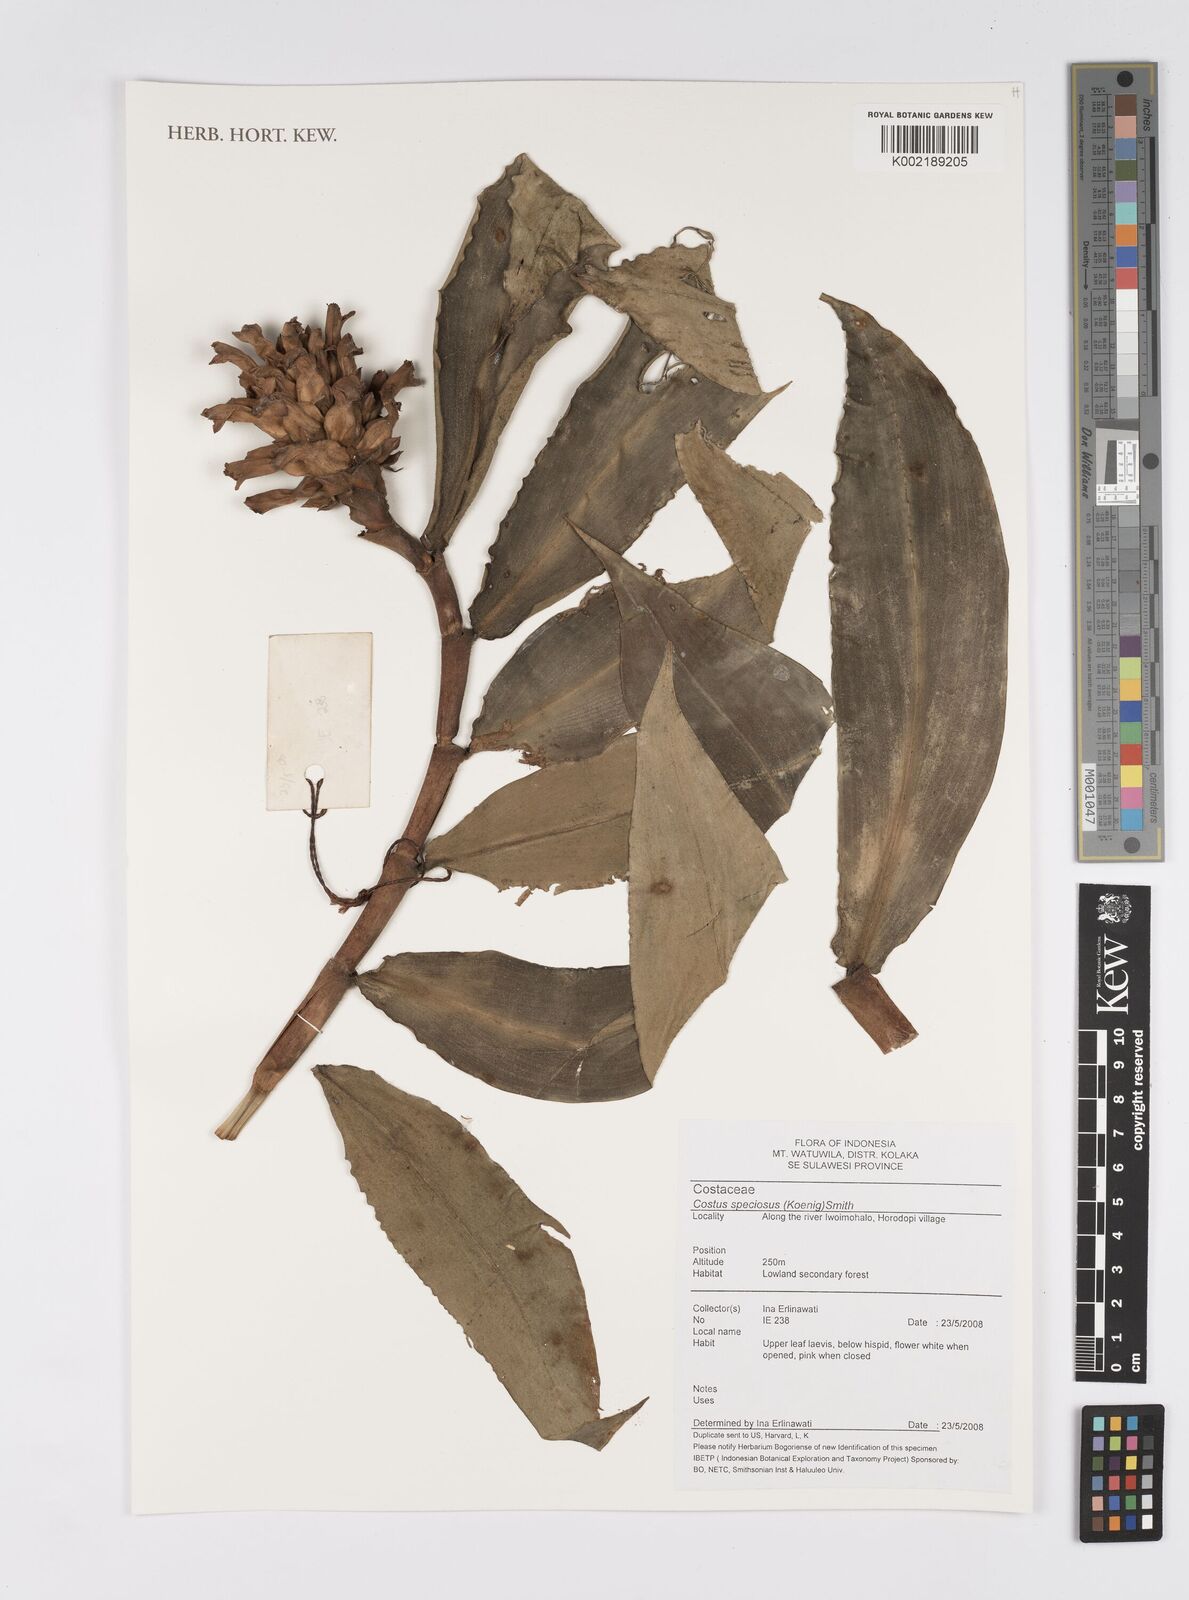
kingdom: Plantae
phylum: Tracheophyta
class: Liliopsida
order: Zingiberales
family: Costaceae
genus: Hellenia
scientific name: Hellenia speciosa
